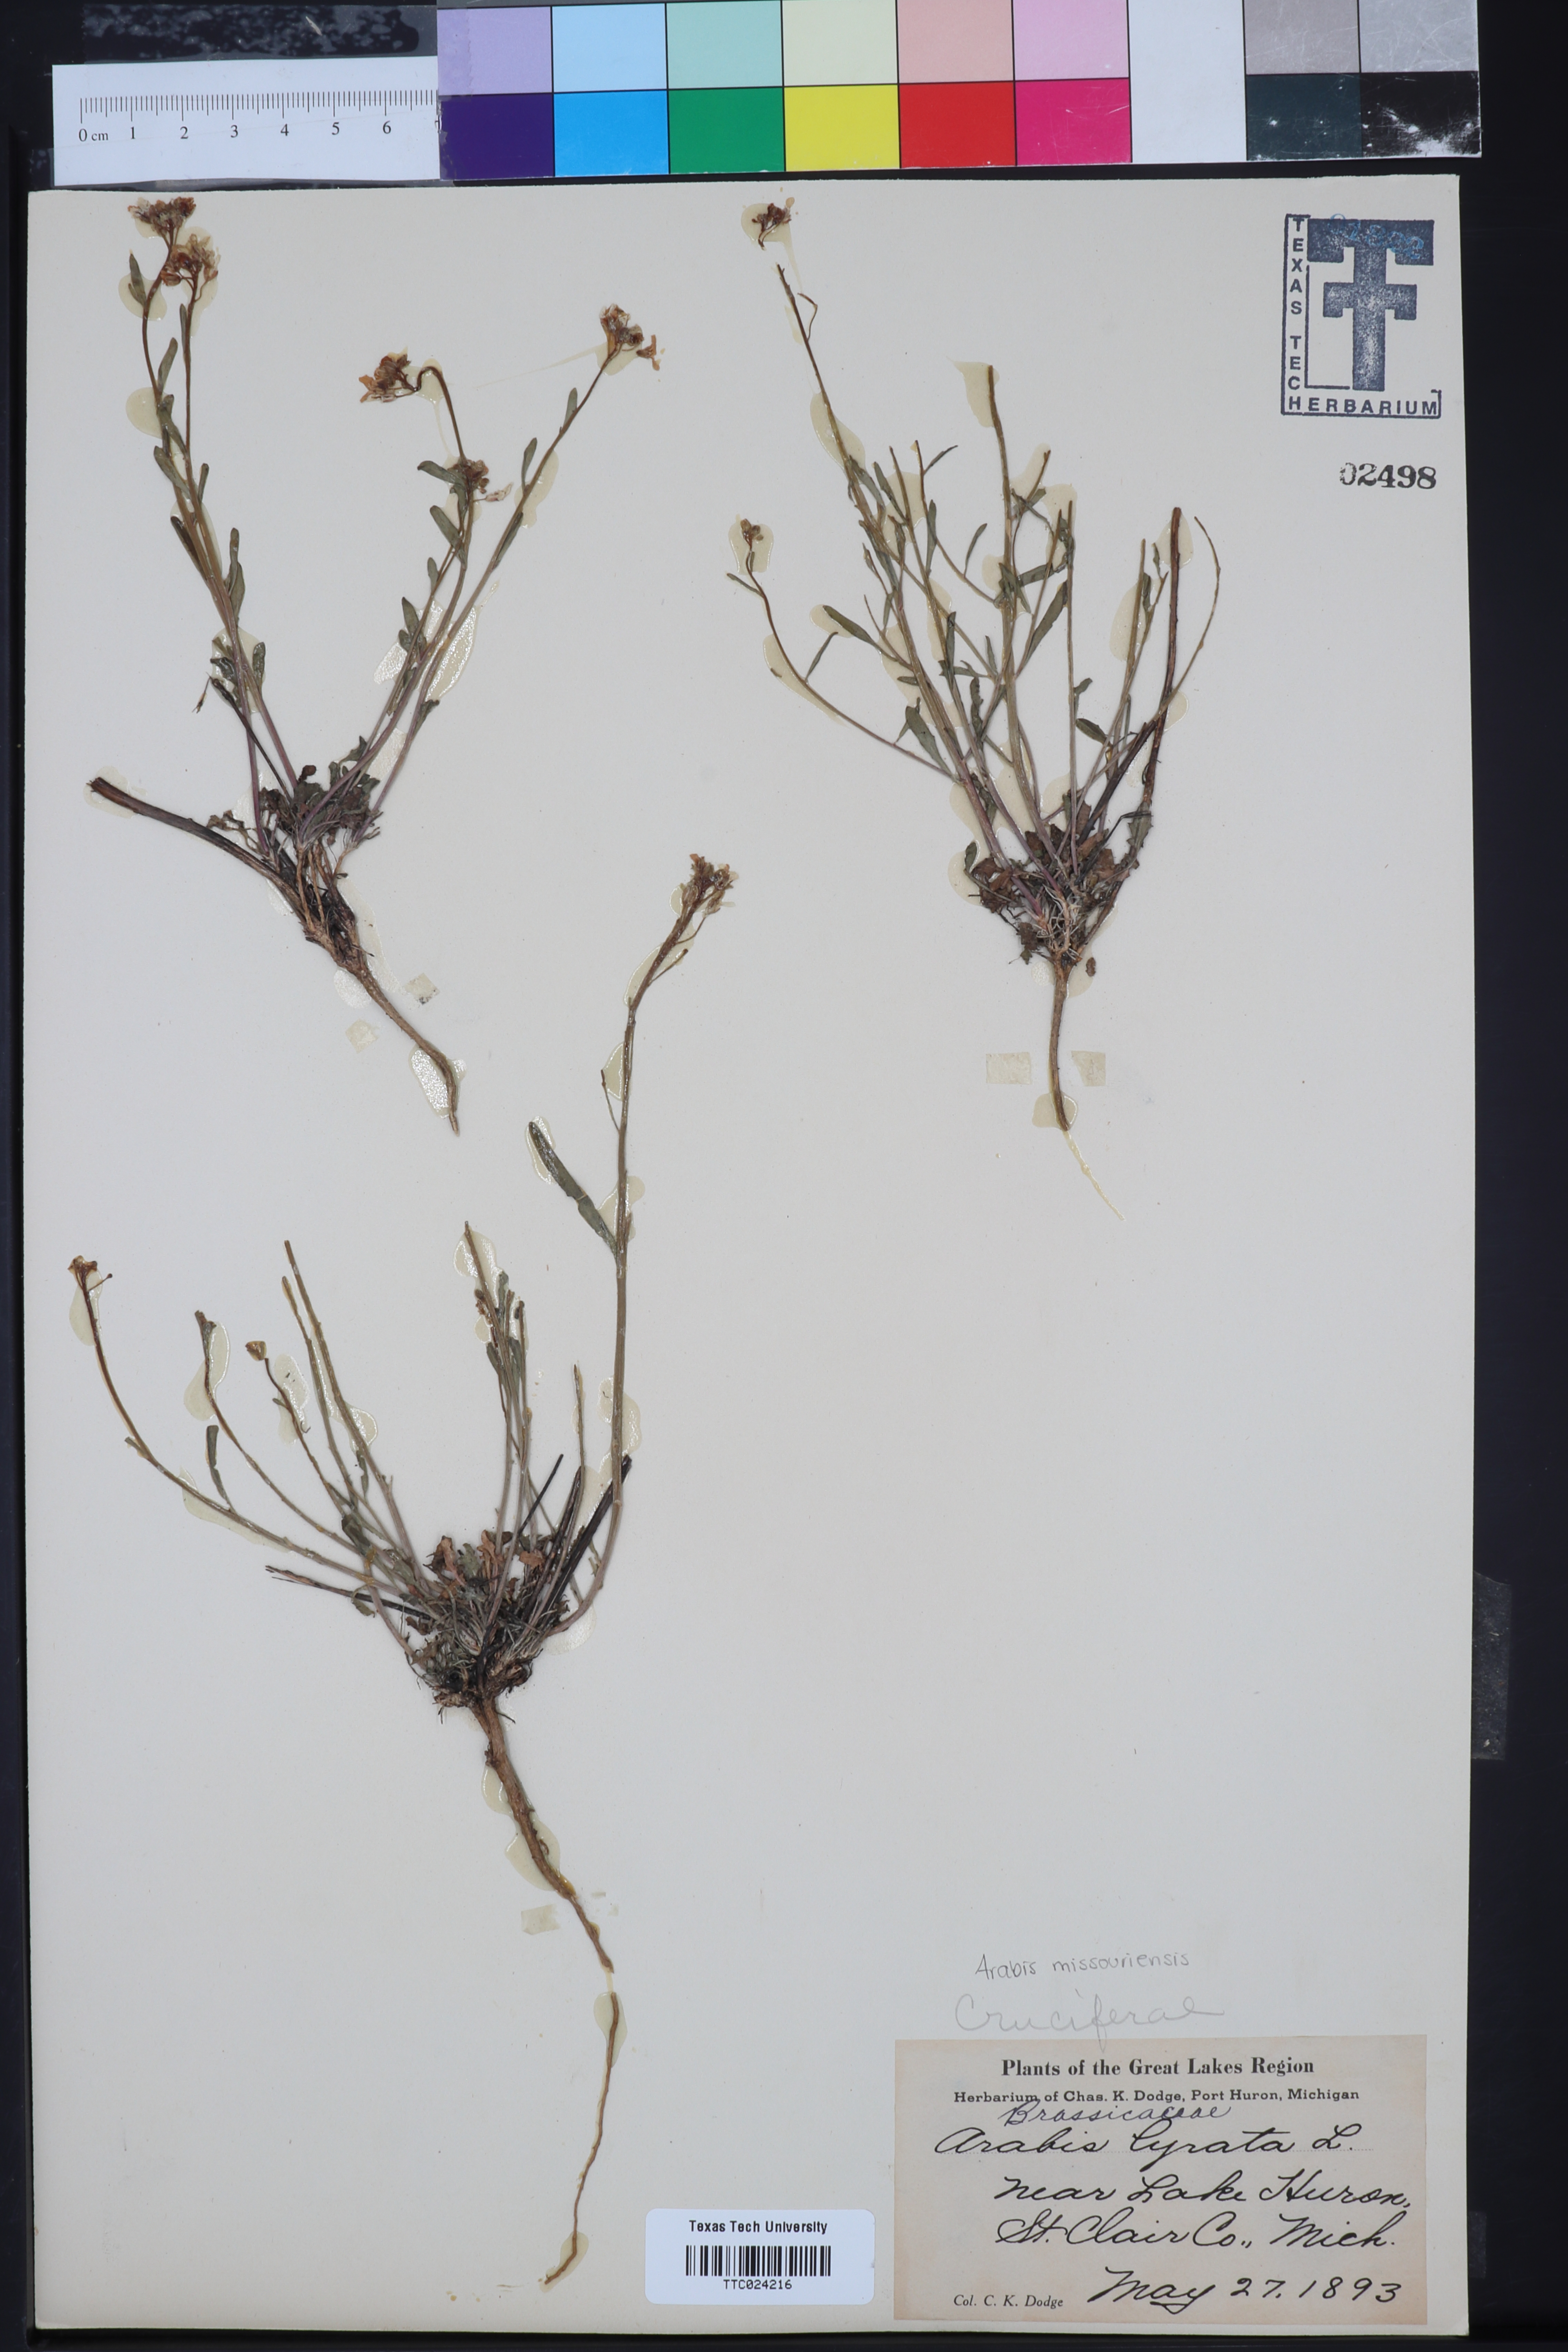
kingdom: Plantae
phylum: Tracheophyta
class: Magnoliopsida
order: Brassicales
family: Brassicaceae
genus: Borodinia
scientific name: Borodinia missouriensis
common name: Green rockcress
